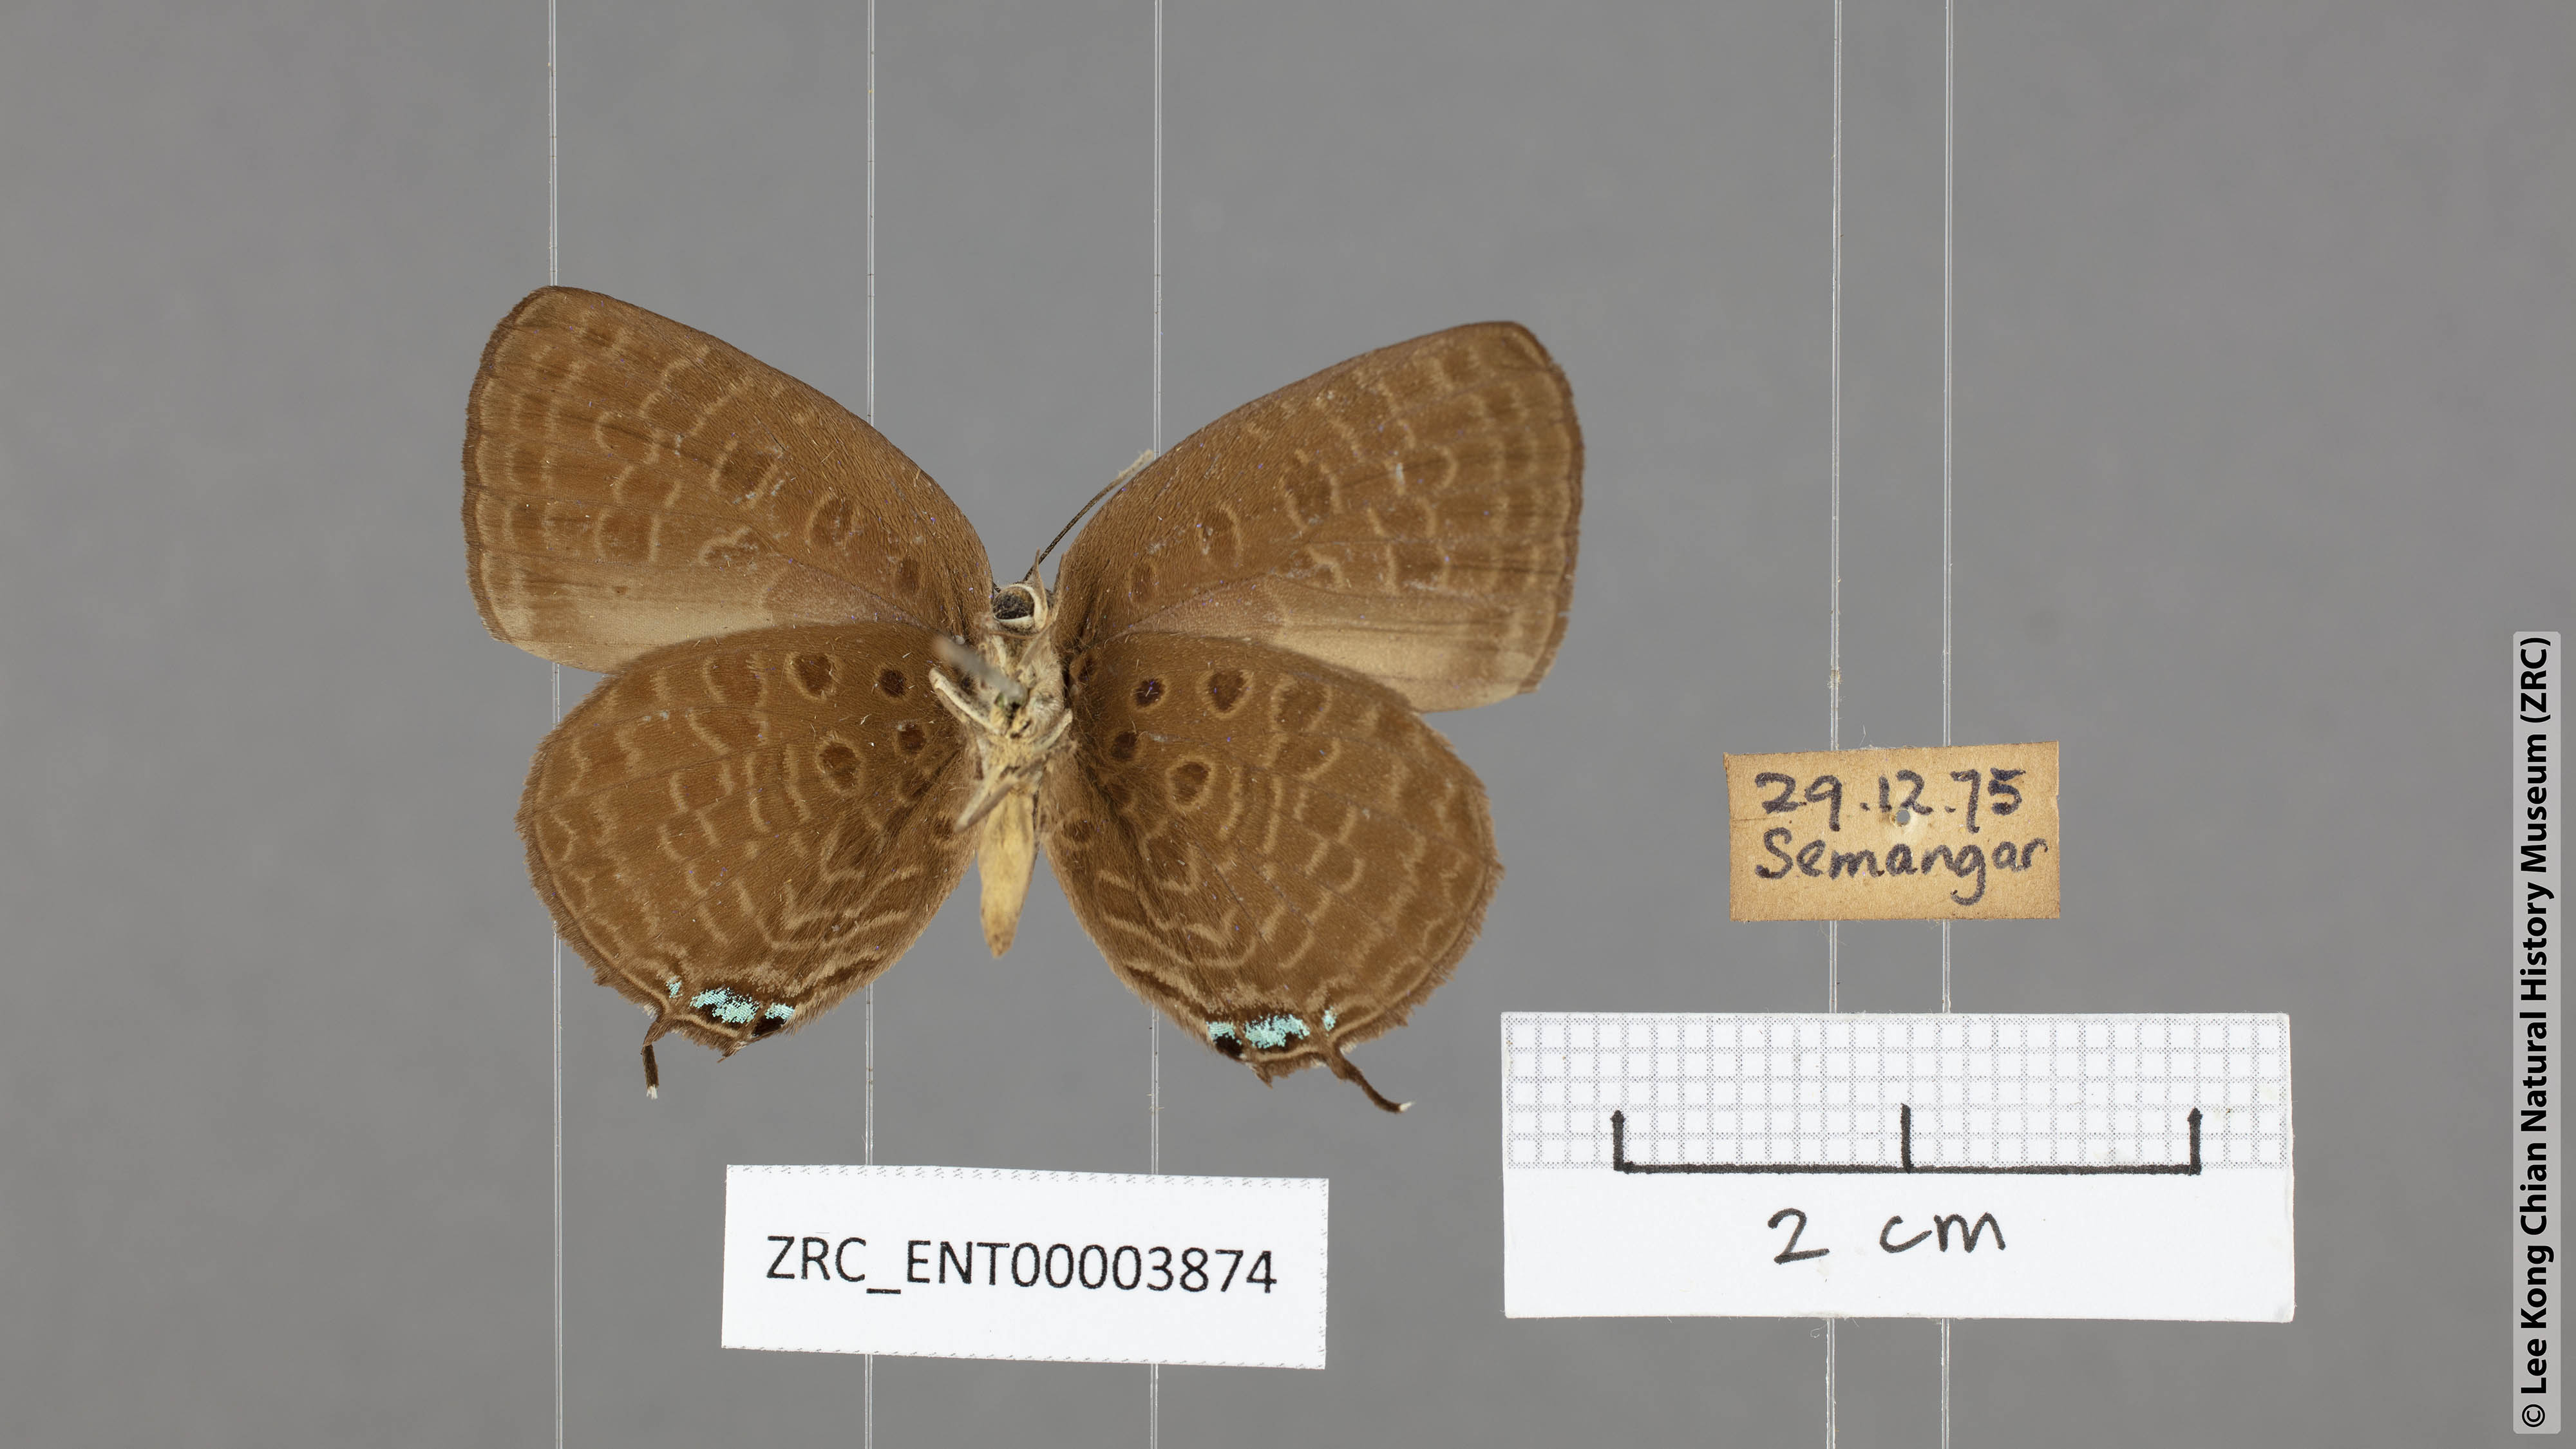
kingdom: Animalia
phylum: Arthropoda
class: Insecta
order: Lepidoptera
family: Lycaenidae
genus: Arhopala
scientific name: Arhopala atosia
